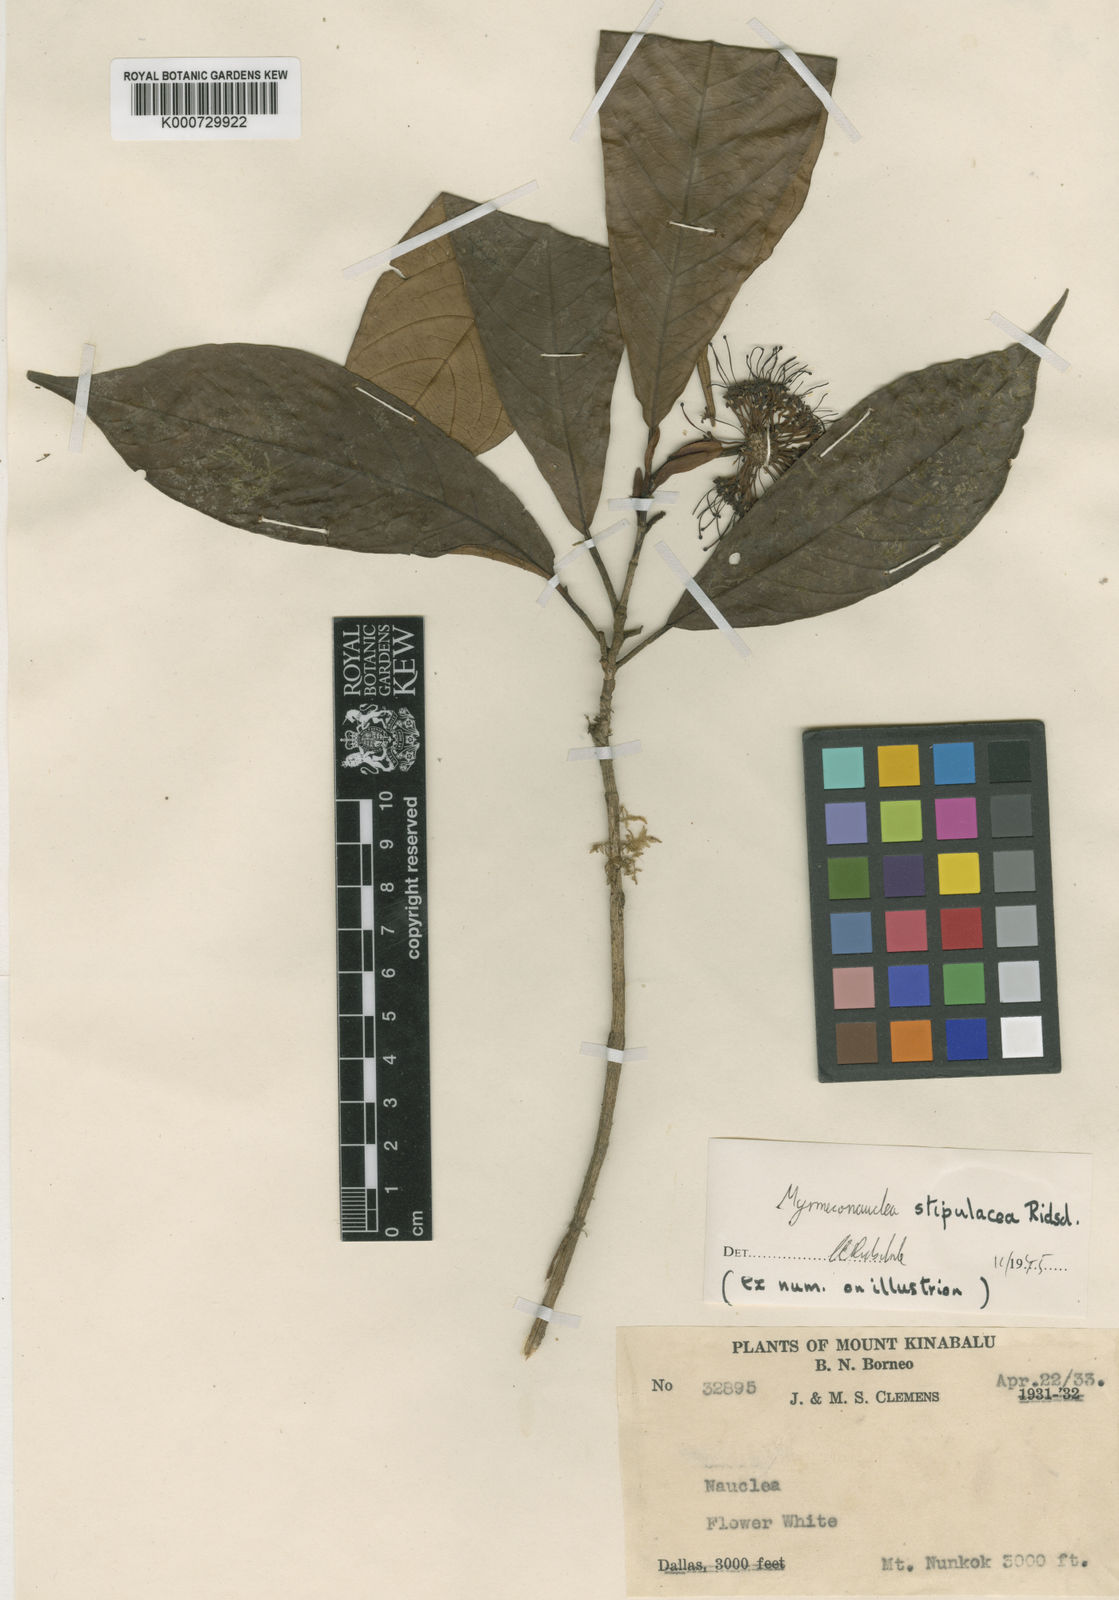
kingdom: Plantae
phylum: Tracheophyta
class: Magnoliopsida
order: Gentianales
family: Rubiaceae
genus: Myrmeconauclea
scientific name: Myrmeconauclea stipulacea
